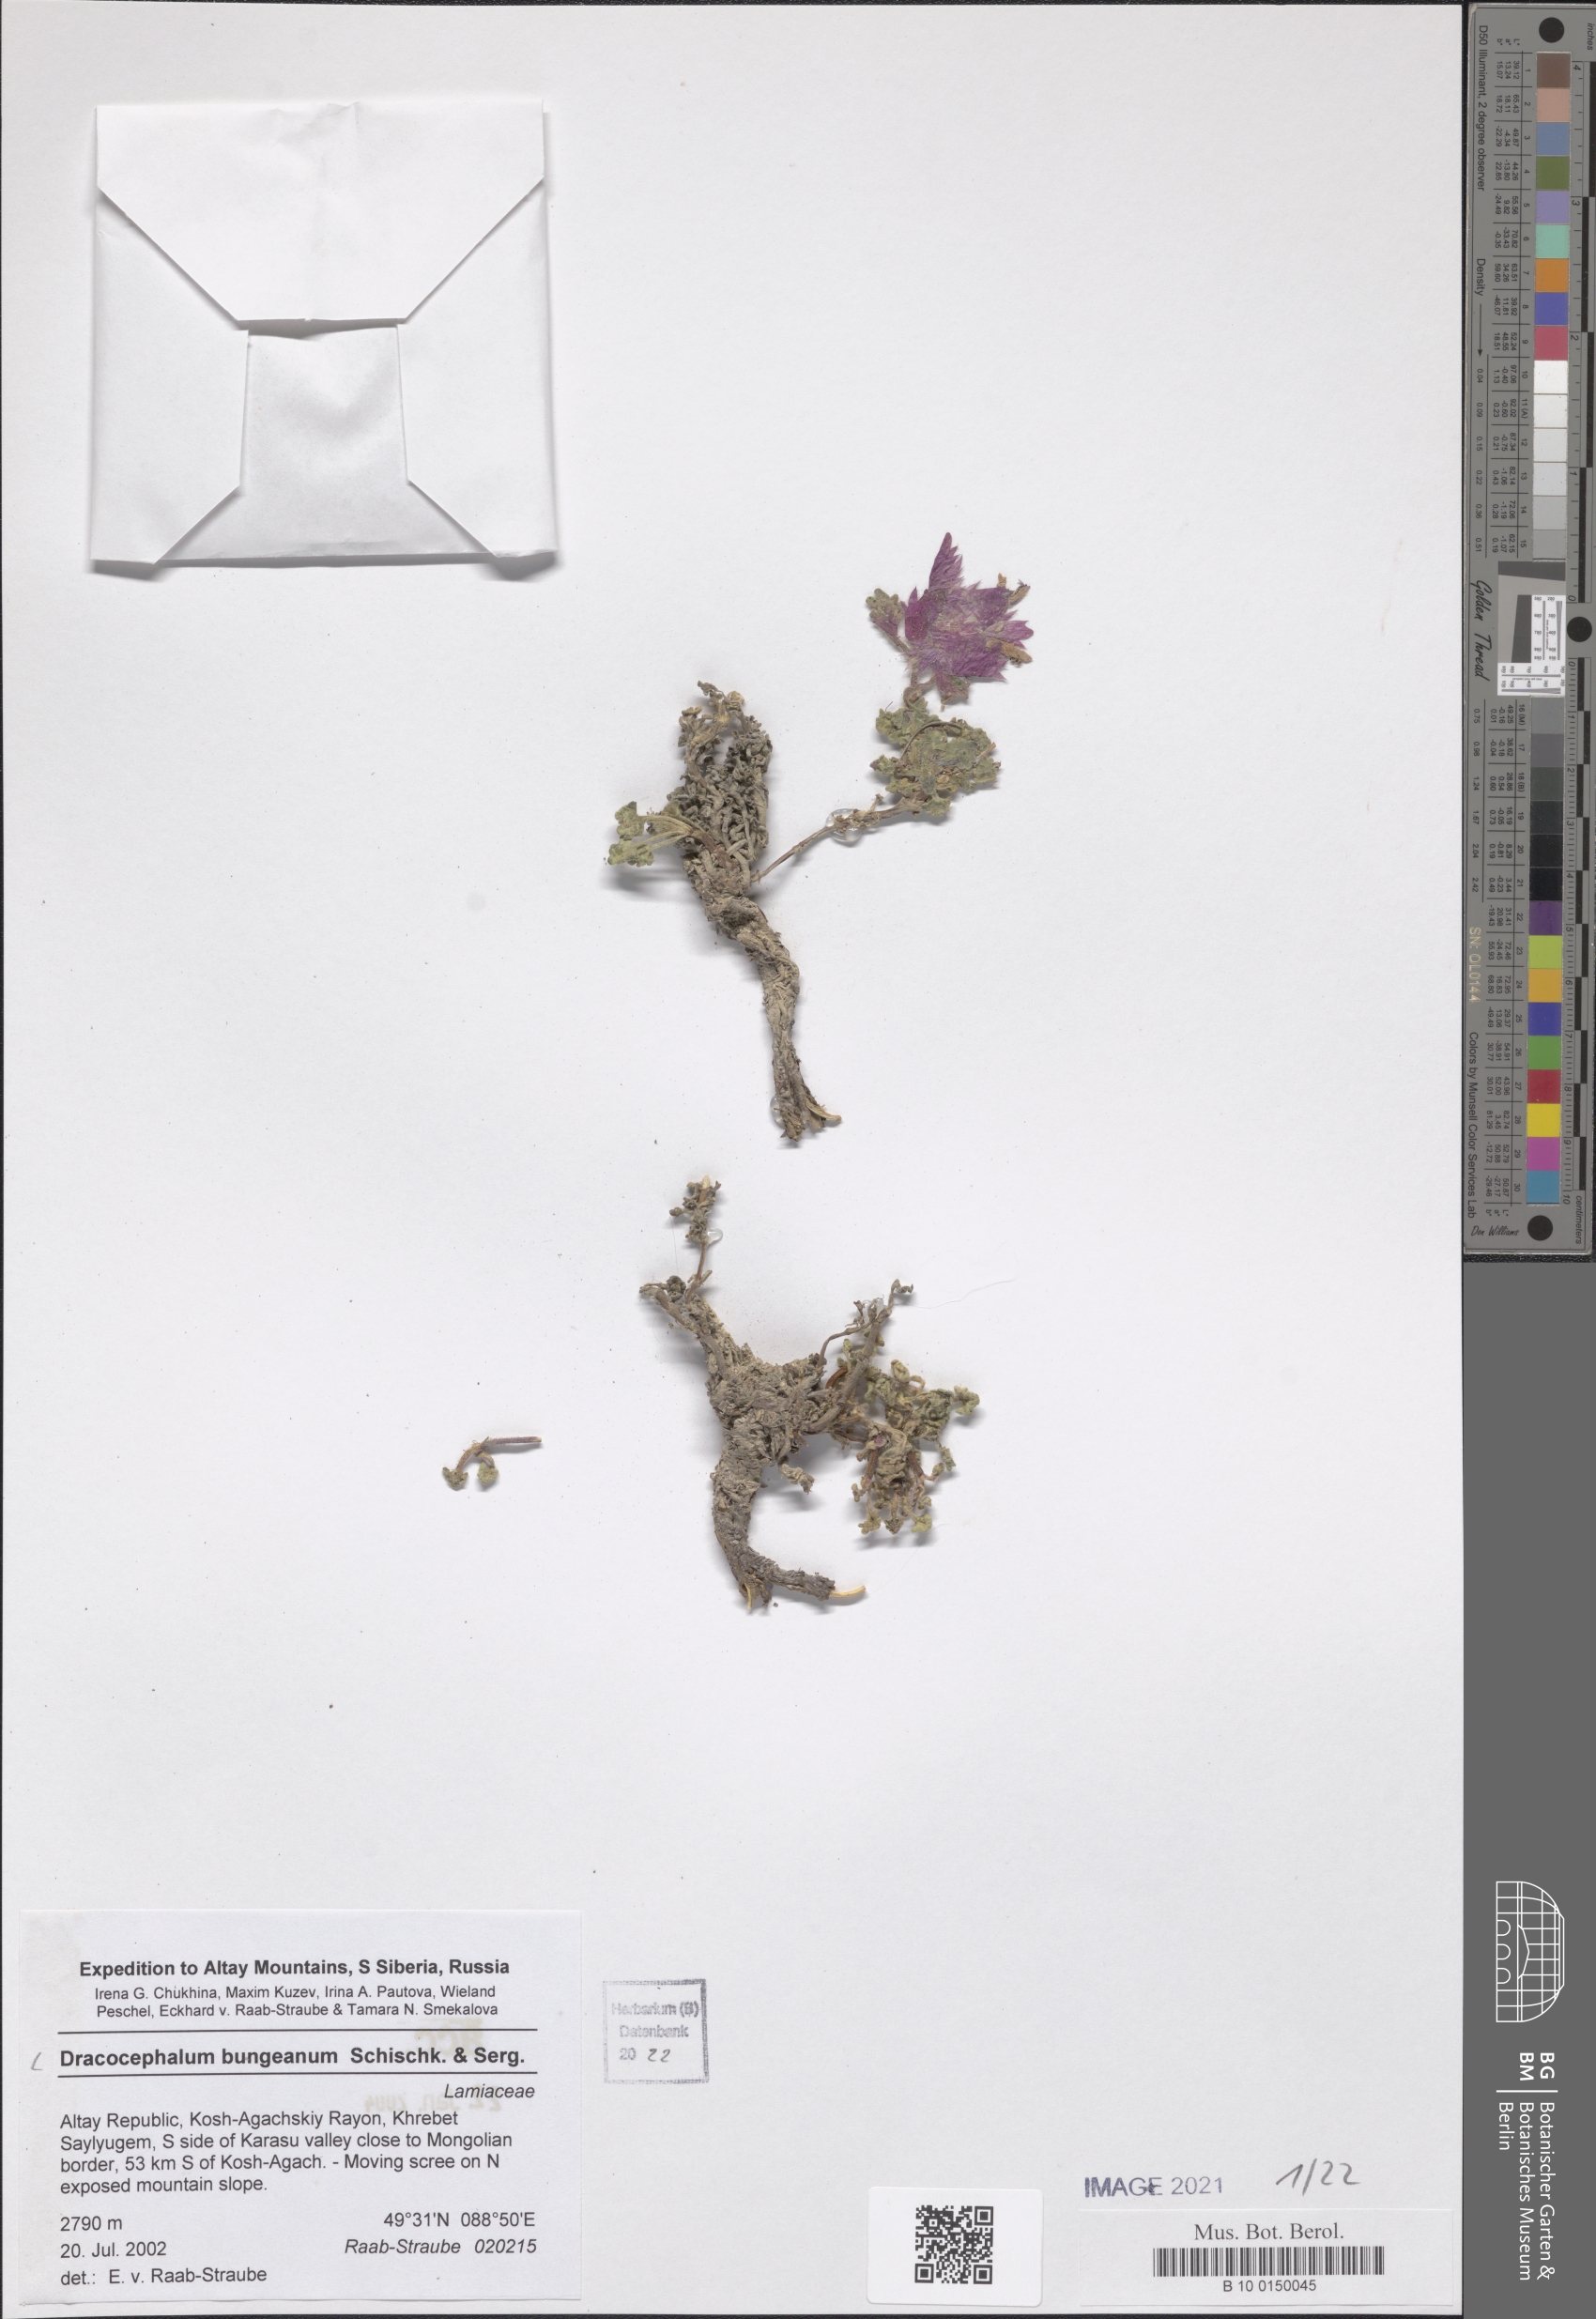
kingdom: Plantae
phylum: Tracheophyta
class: Magnoliopsida
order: Lamiales
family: Lamiaceae
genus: Dracocephalum
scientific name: Dracocephalum origanoides
